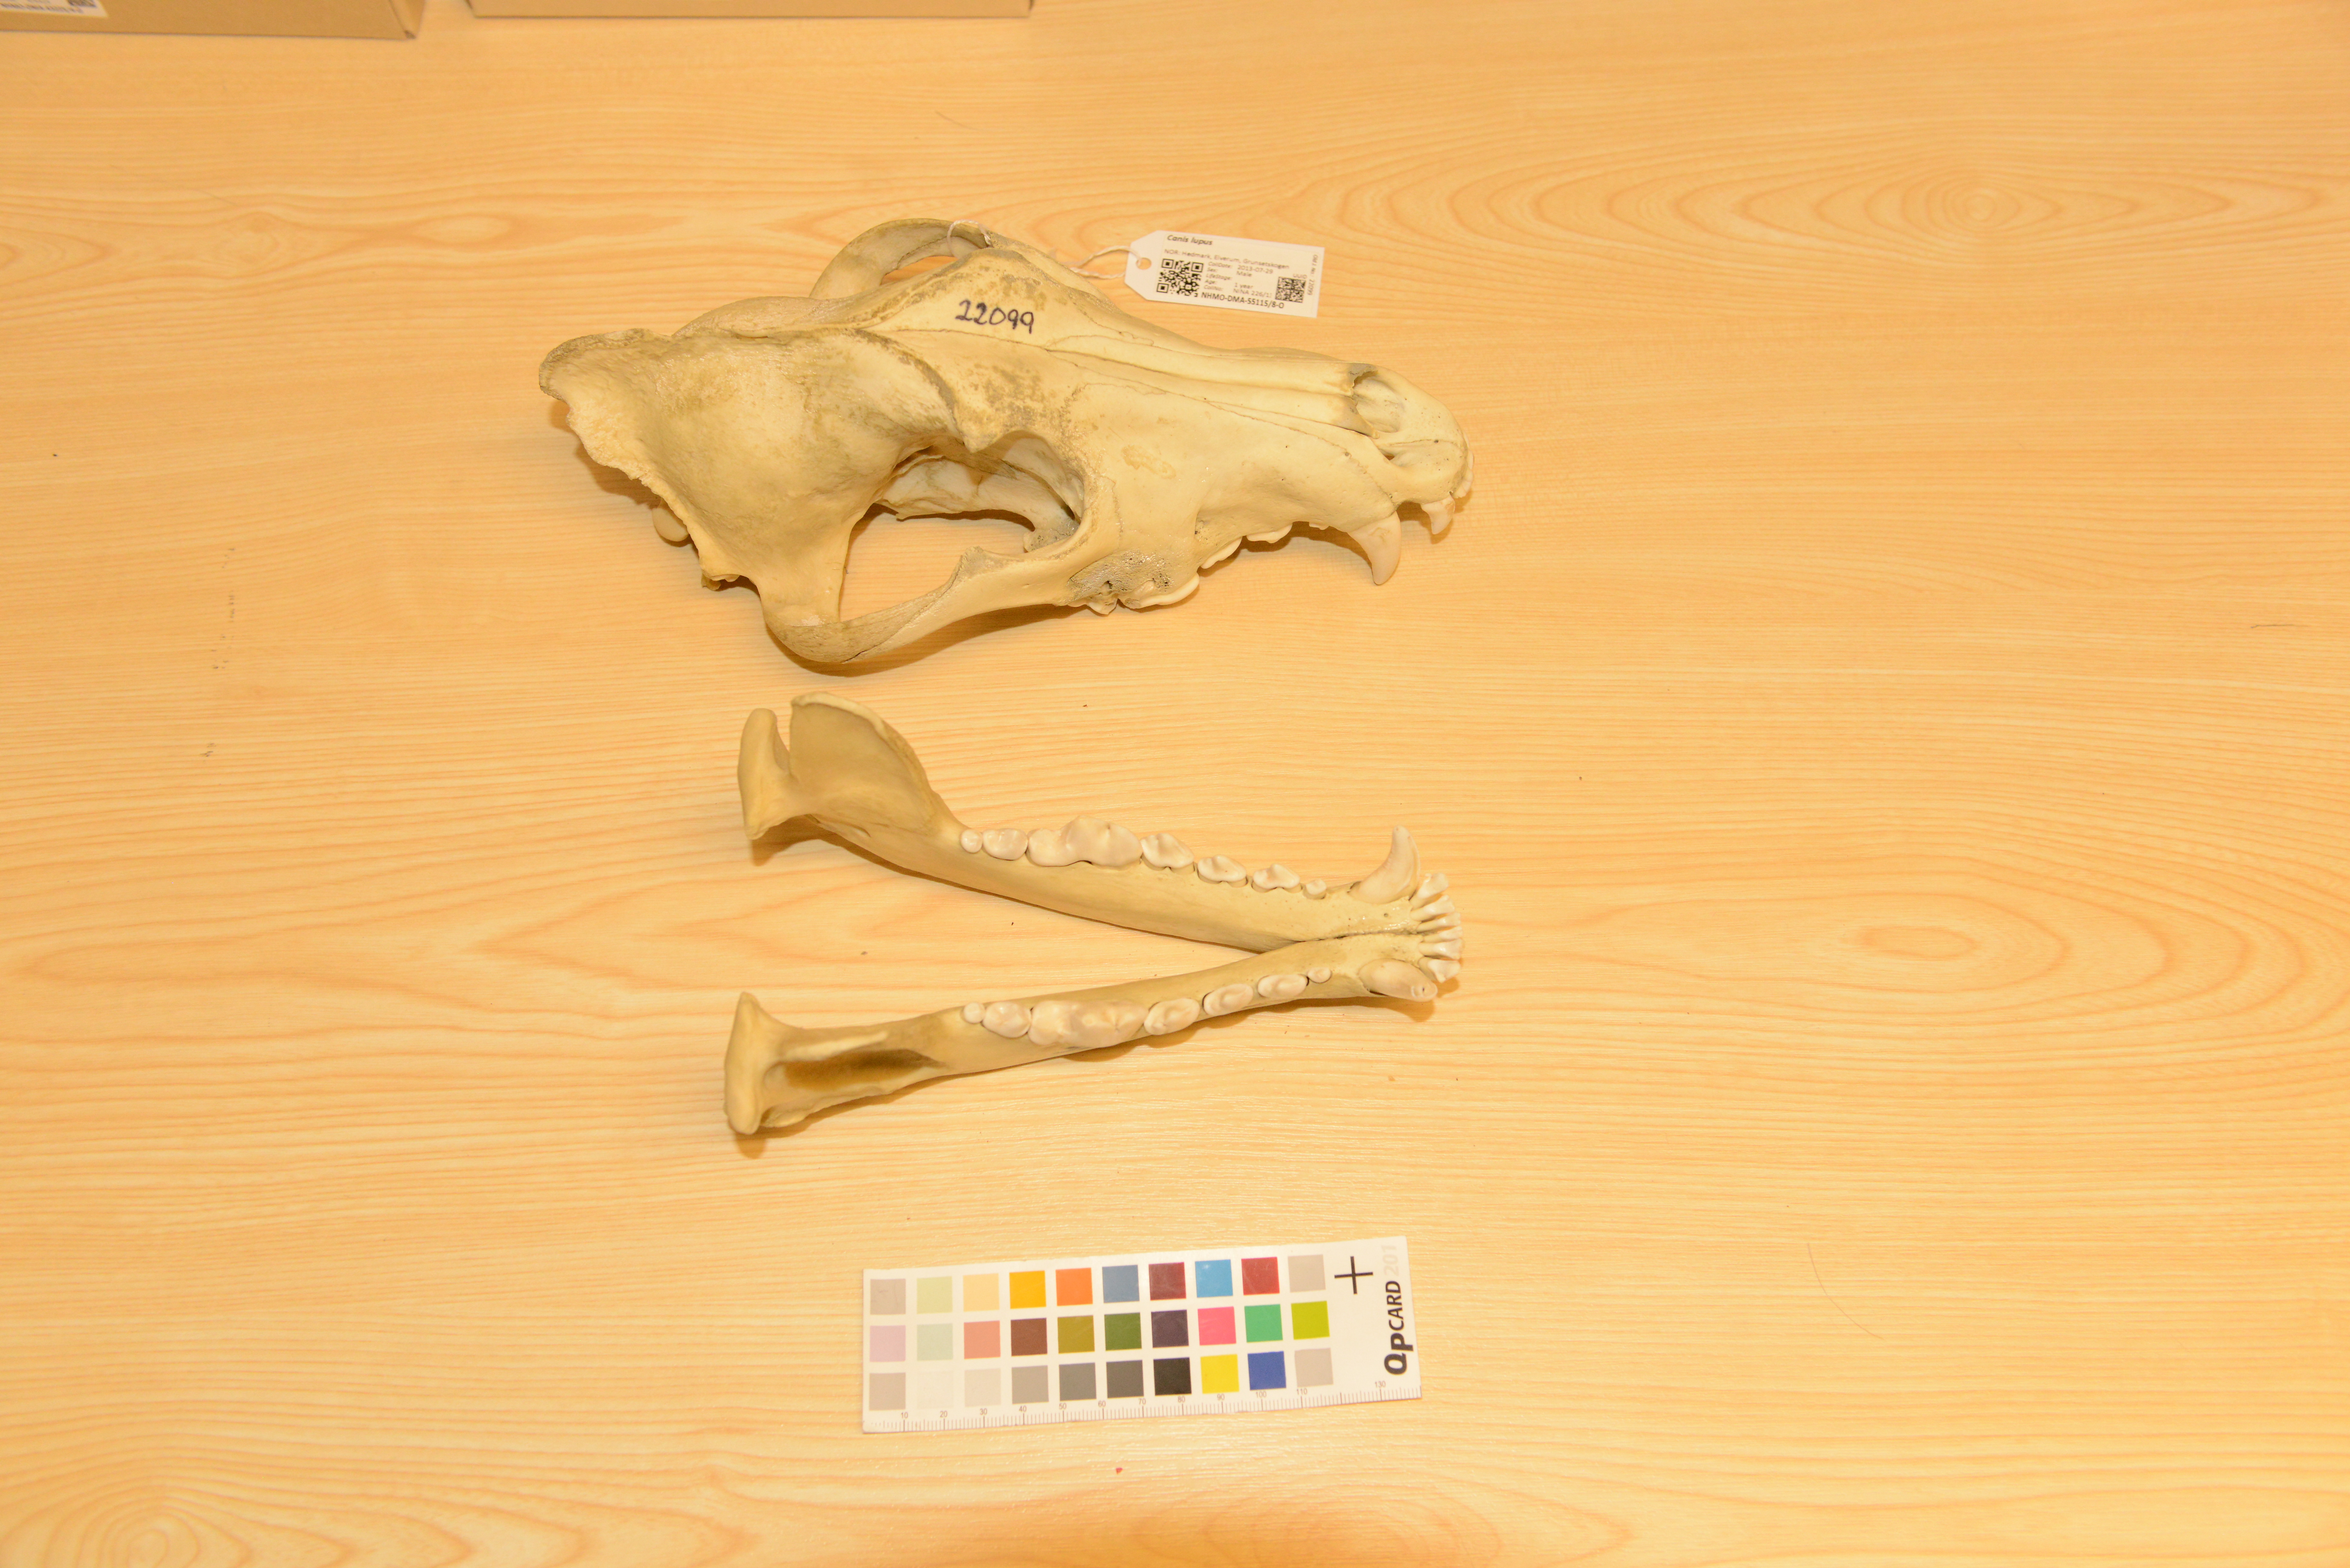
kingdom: Animalia
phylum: Chordata
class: Mammalia
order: Carnivora
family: Canidae
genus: Canis
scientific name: Canis lupus
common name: Gray wolf
